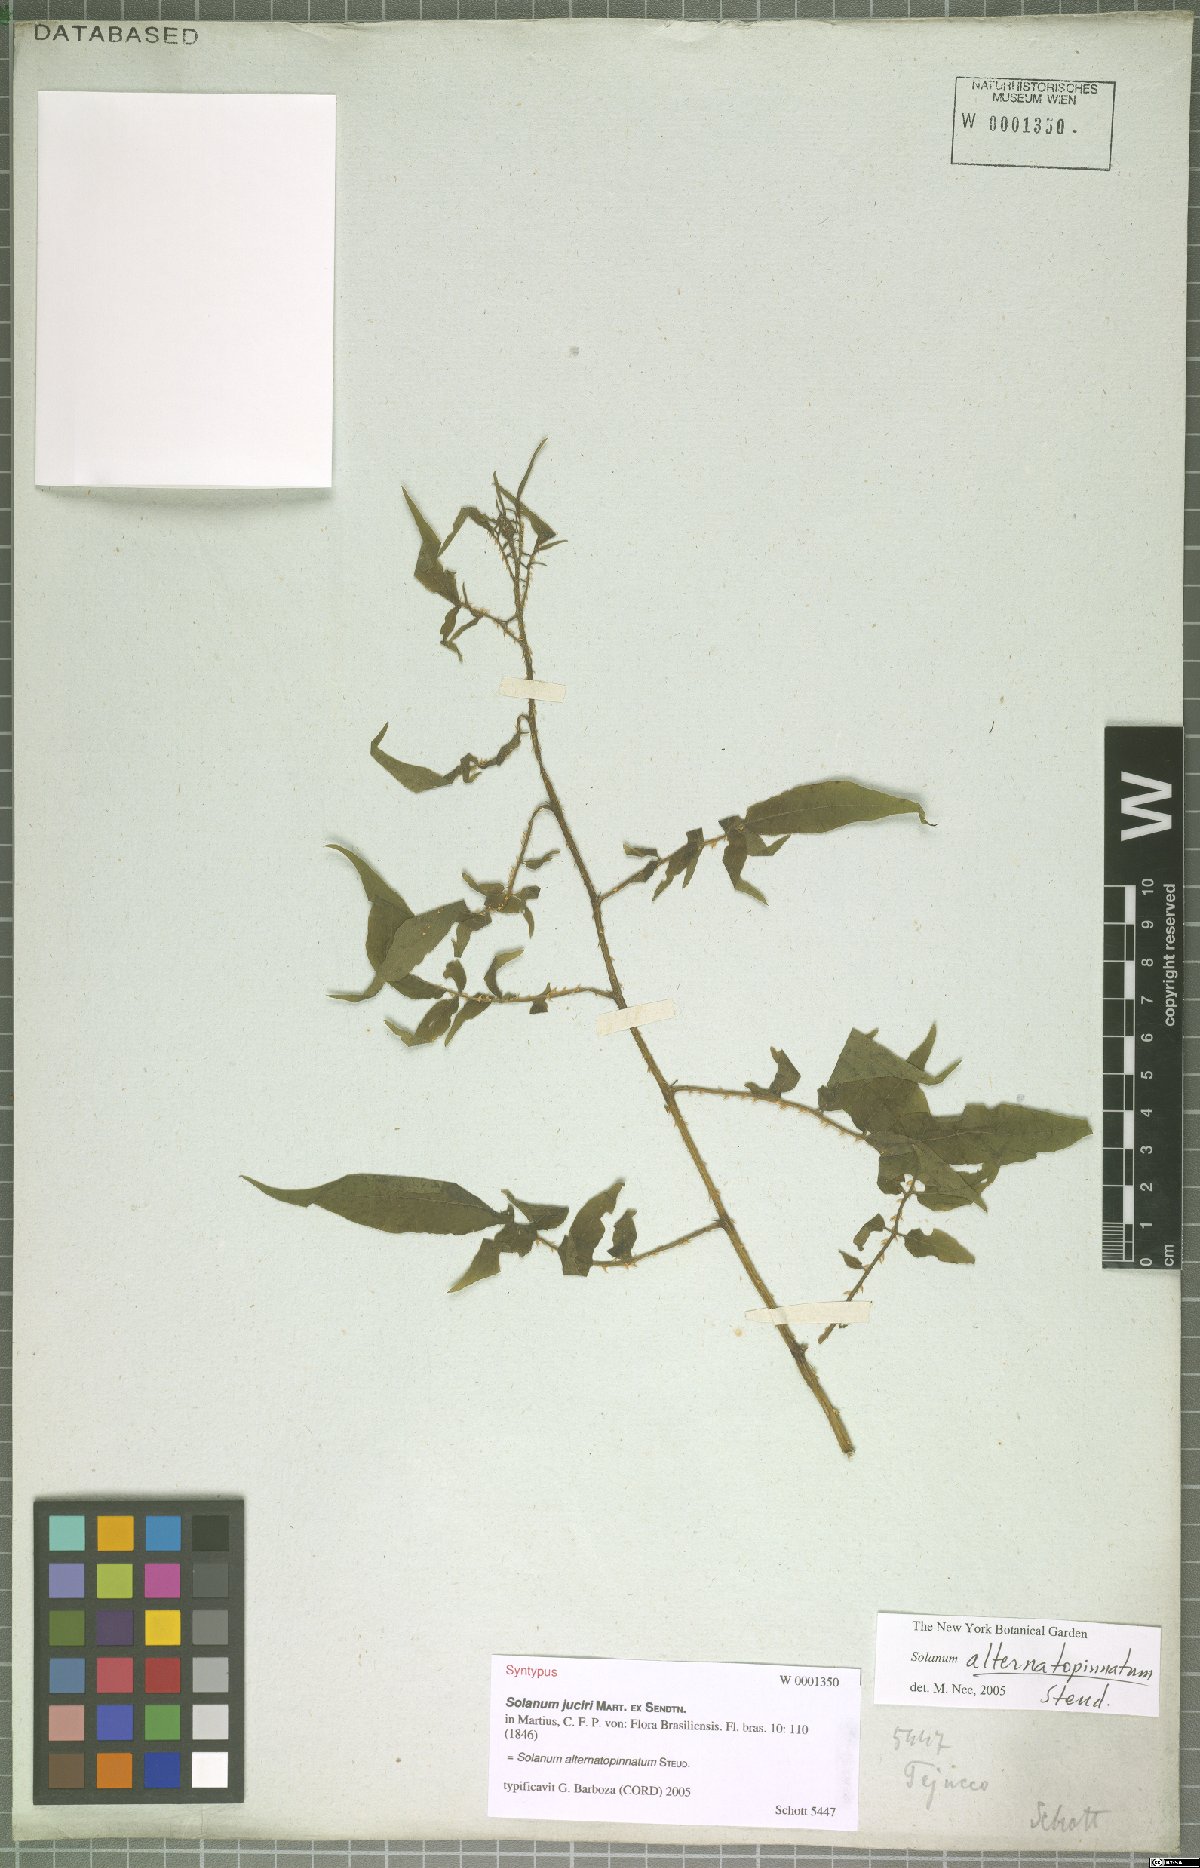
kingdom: Plantae
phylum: Tracheophyta
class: Magnoliopsida
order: Solanales
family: Solanaceae
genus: Solanum
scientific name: Solanum alternatopinnatum
